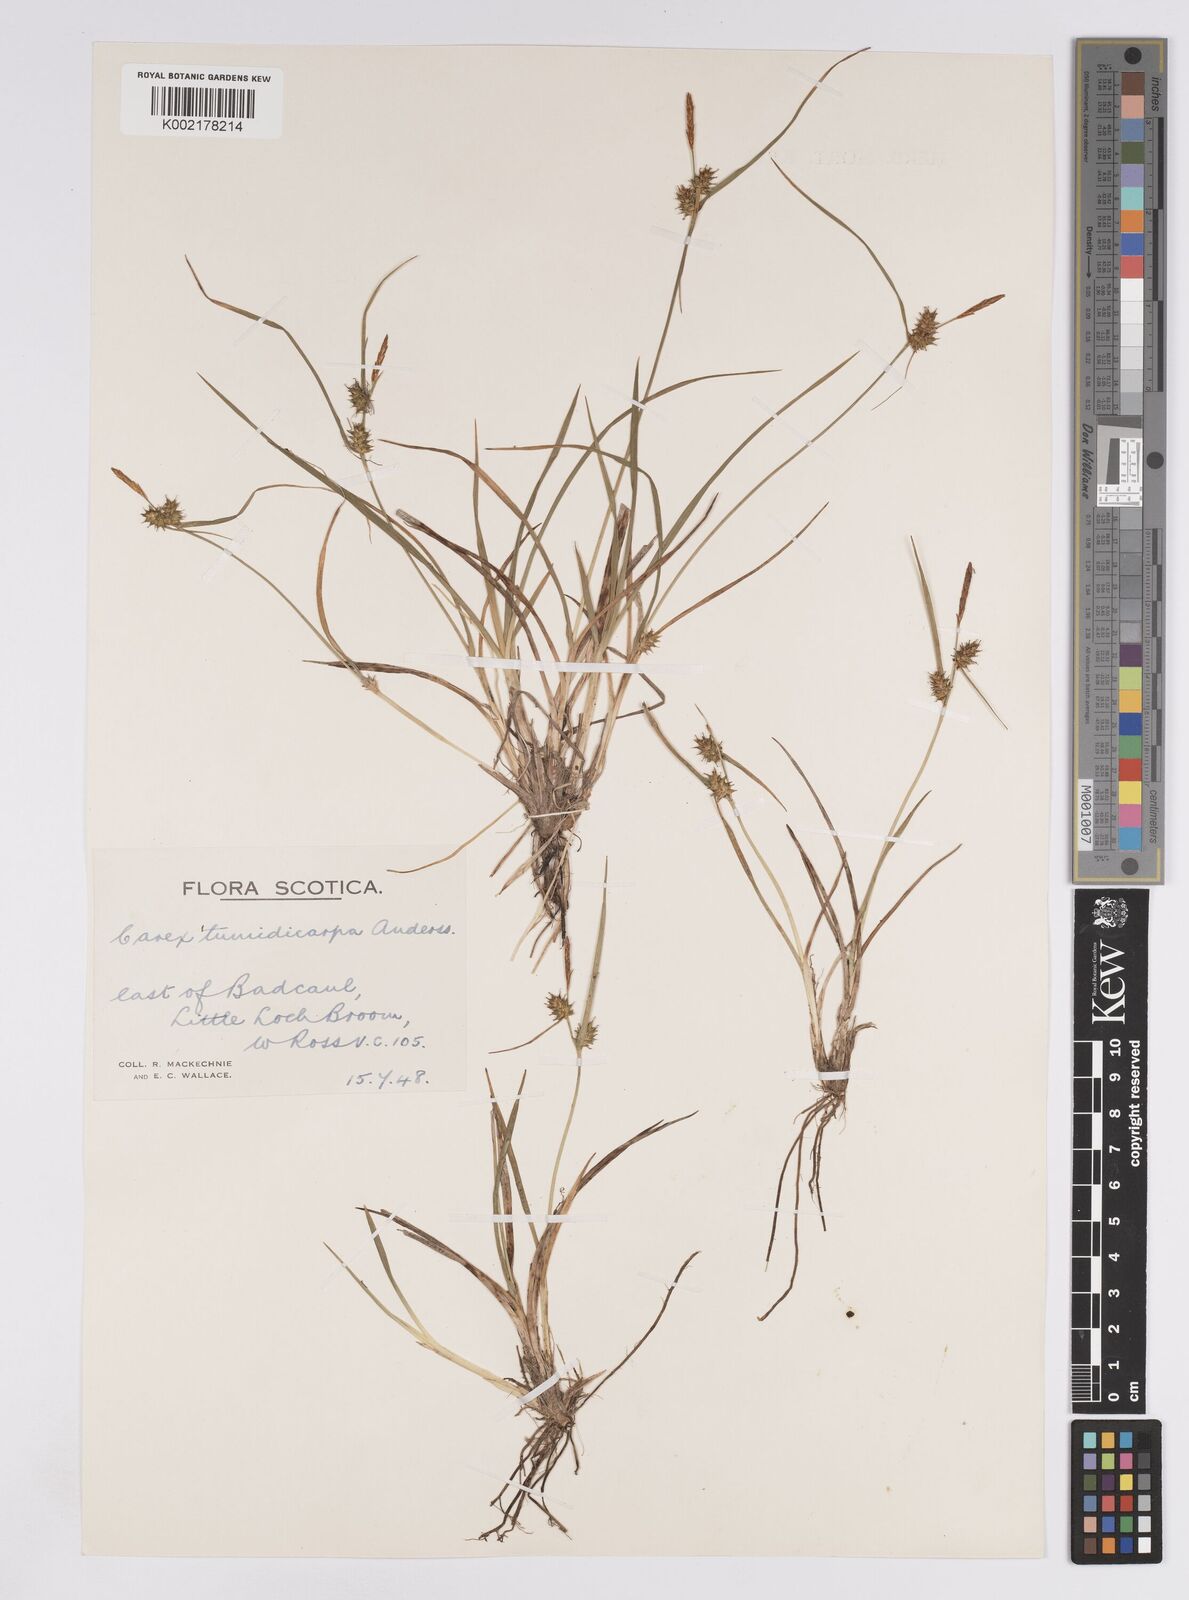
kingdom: Plantae
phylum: Tracheophyta
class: Liliopsida
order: Poales
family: Cyperaceae
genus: Carex
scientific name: Carex demissa
